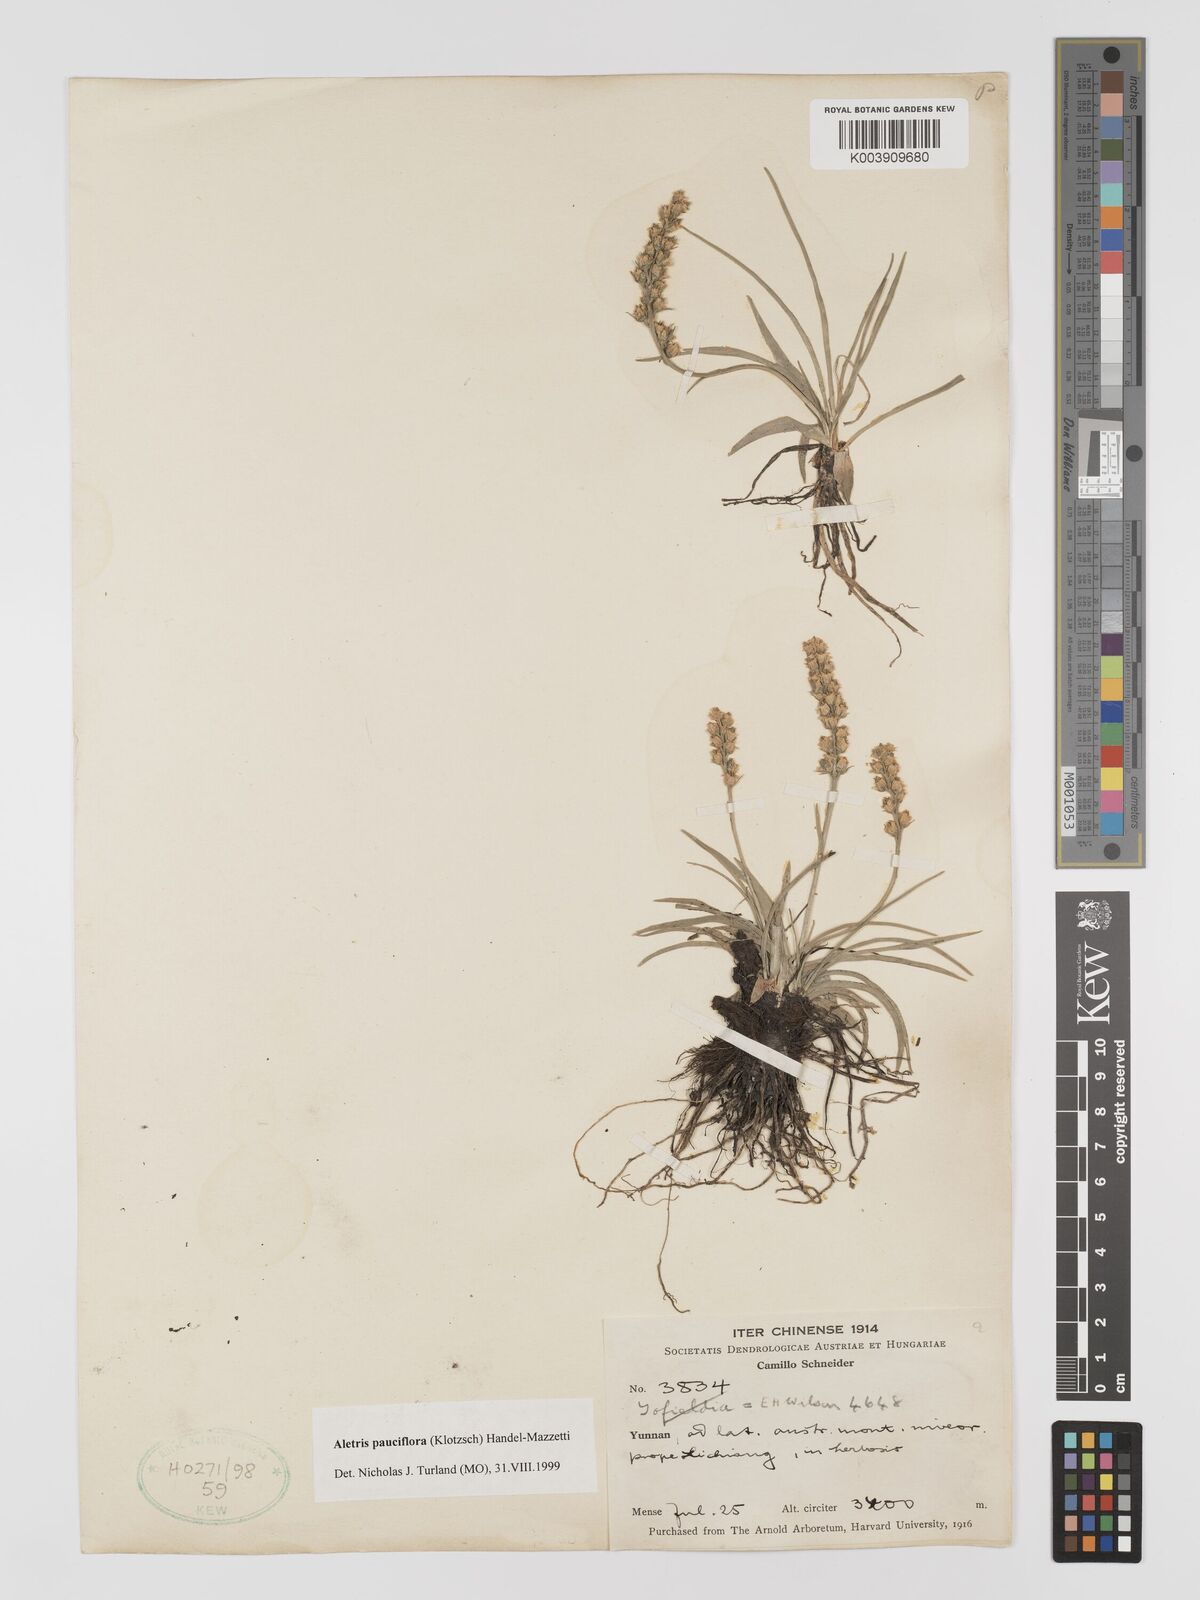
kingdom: Plantae
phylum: Tracheophyta
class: Liliopsida
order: Dioscoreales
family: Nartheciaceae
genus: Aletris
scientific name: Aletris pauciflora
